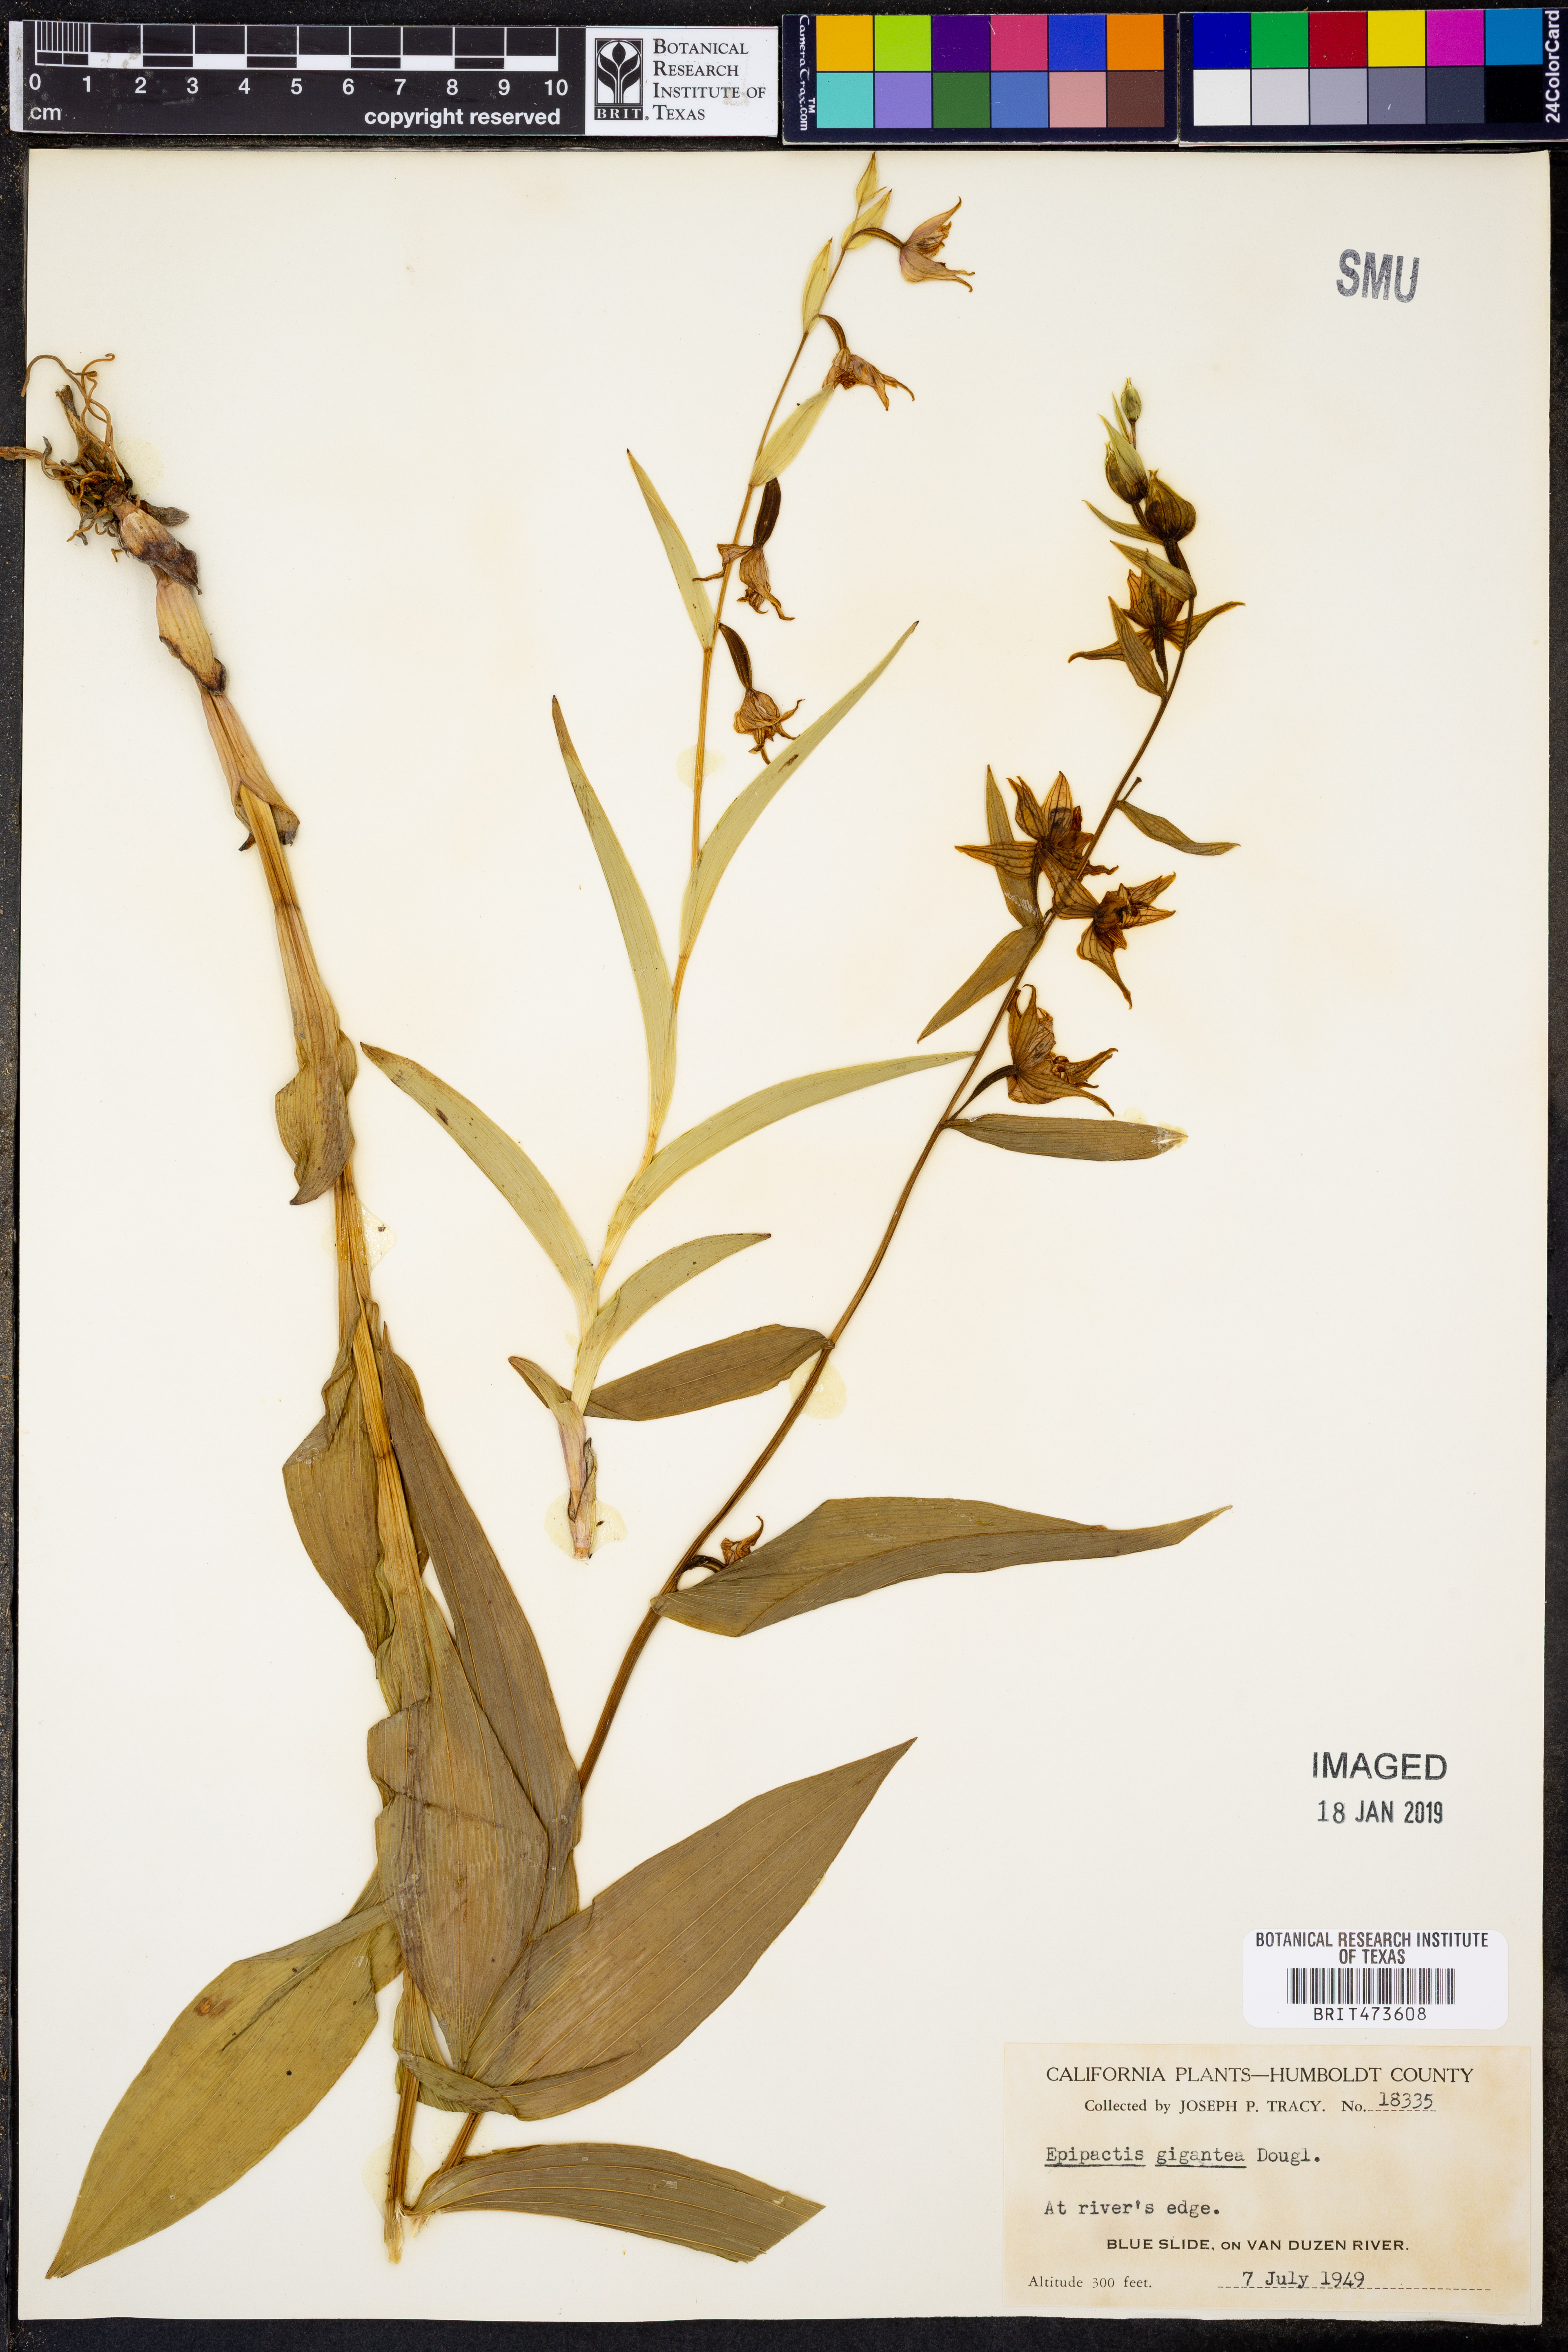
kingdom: Plantae
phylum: Tracheophyta
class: Liliopsida
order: Asparagales
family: Orchidaceae
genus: Epipactis
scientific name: Epipactis gigantea
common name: Chatterbox
